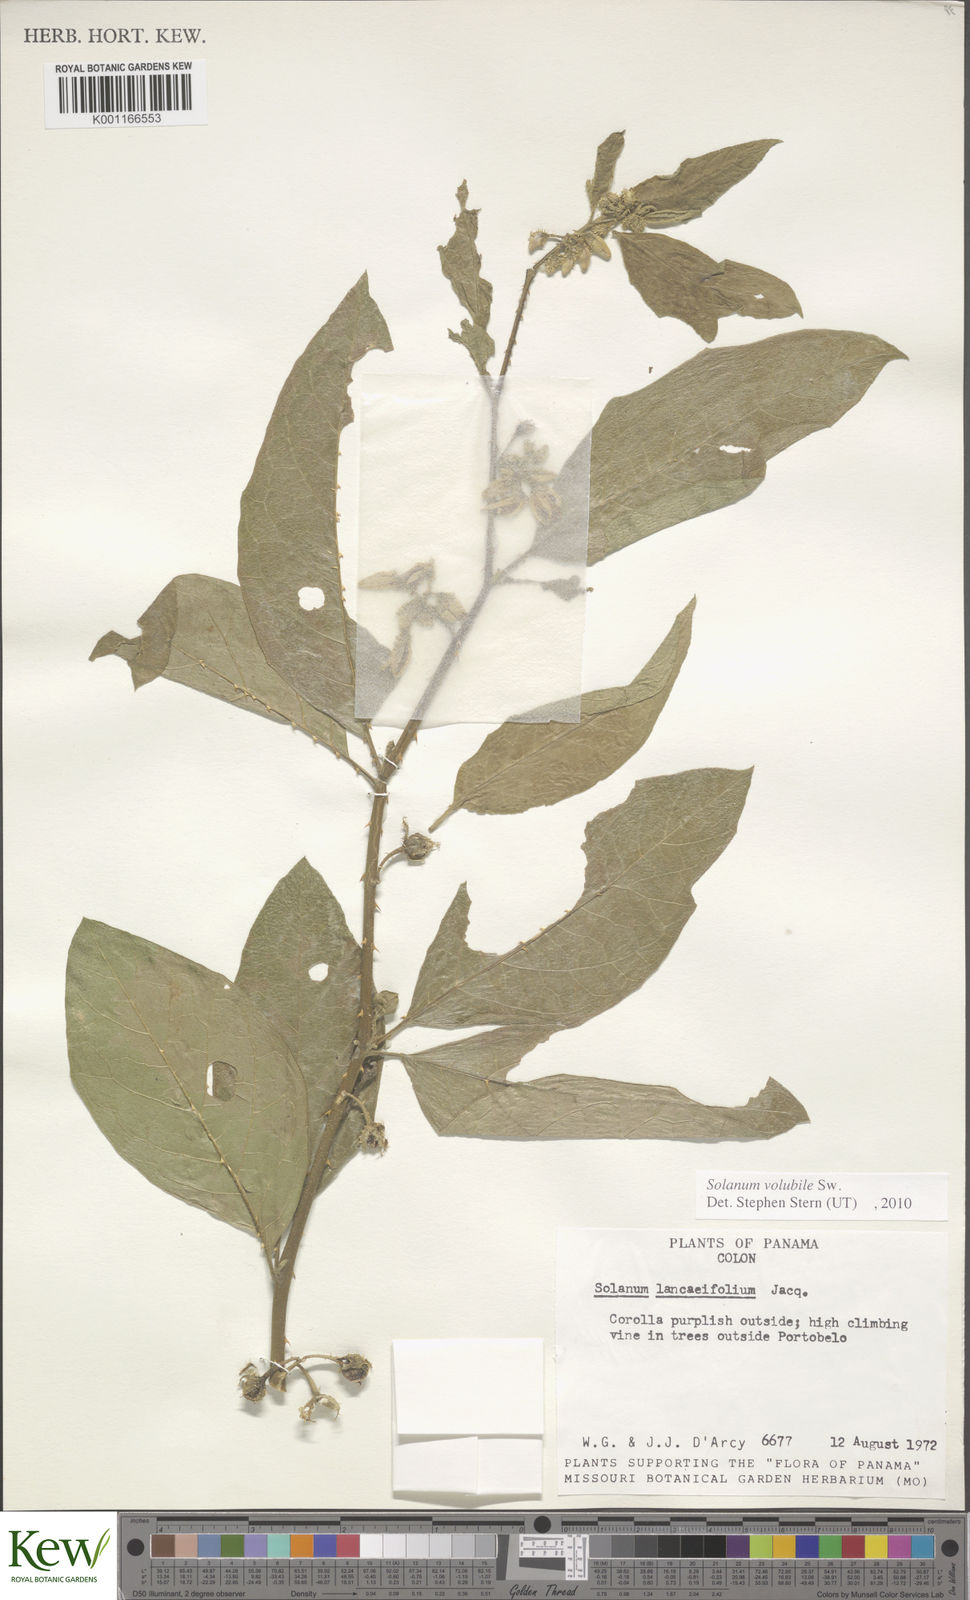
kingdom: Plantae
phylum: Tracheophyta
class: Magnoliopsida
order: Solanales
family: Solanaceae
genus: Solanum
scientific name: Solanum volubile
